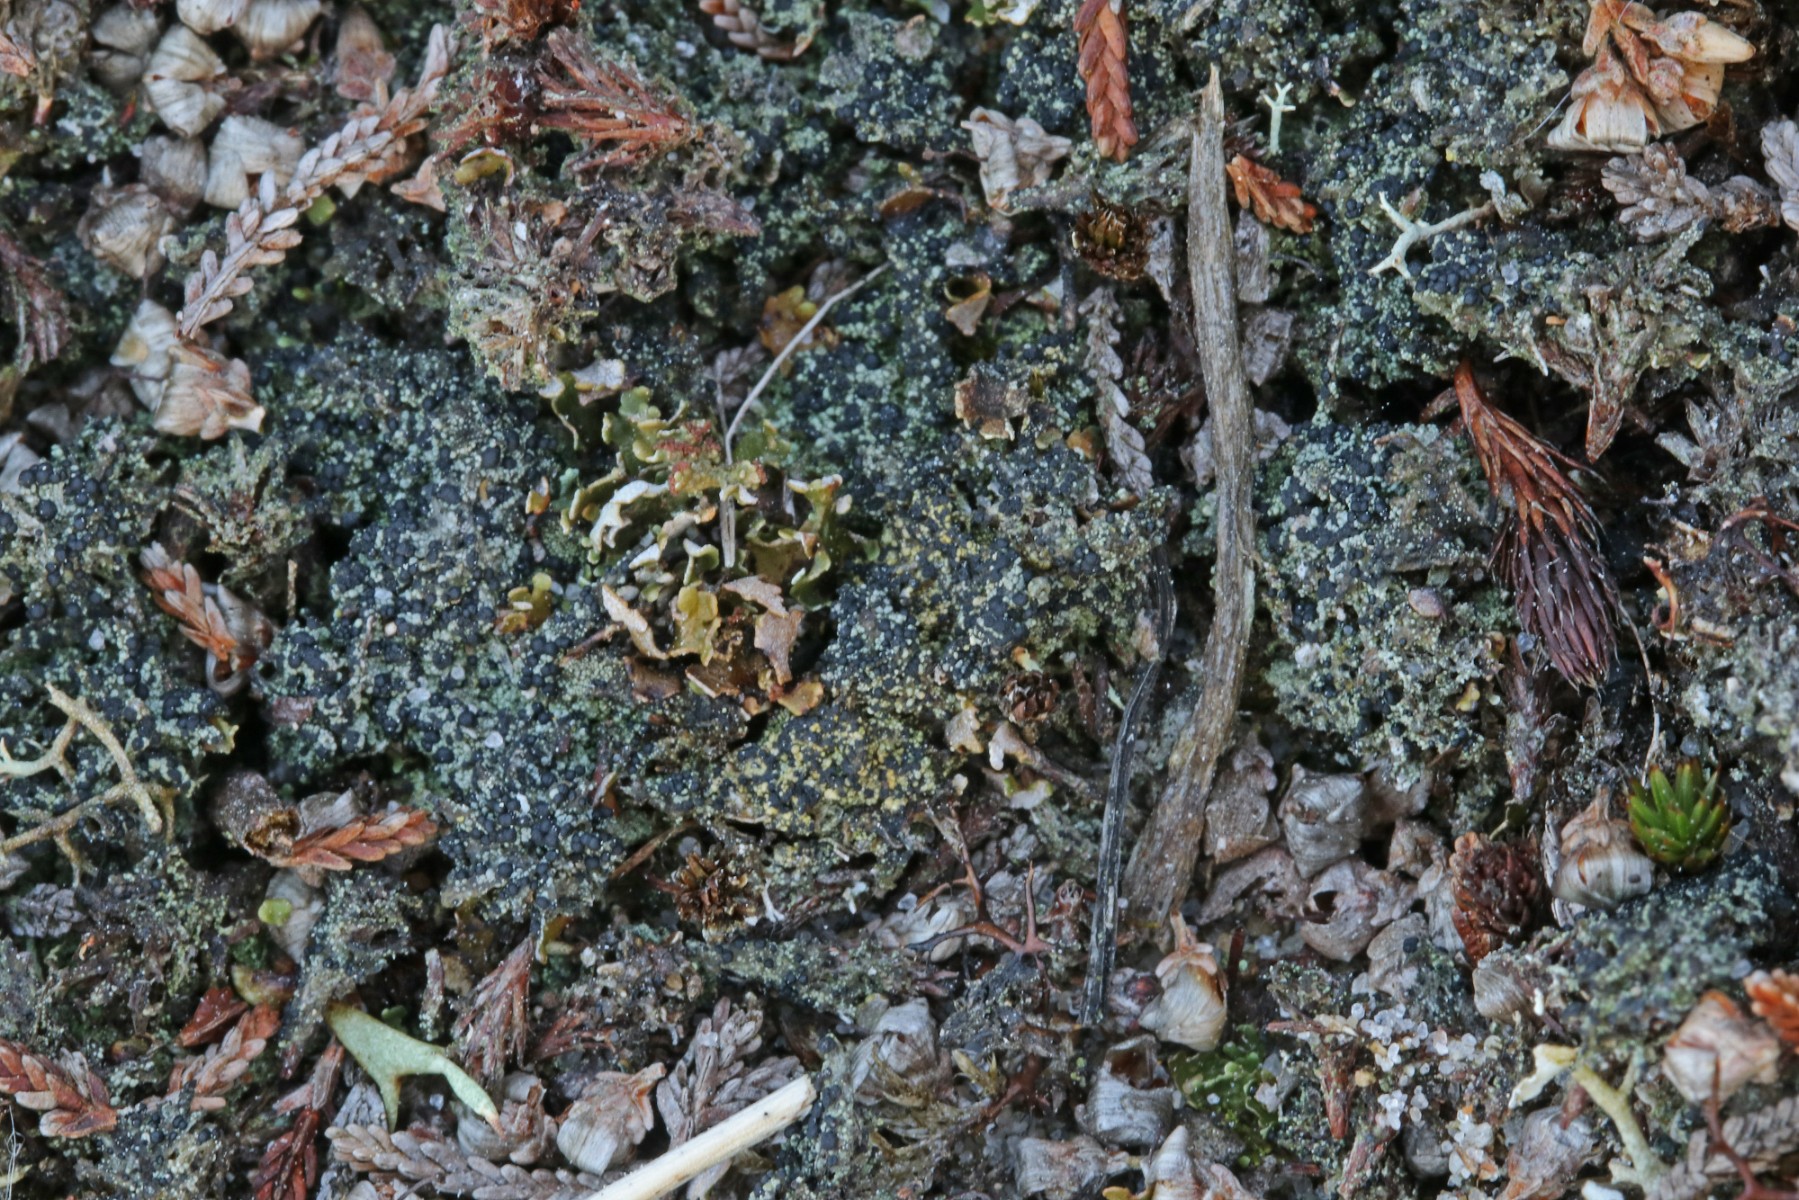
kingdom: Fungi
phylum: Ascomycota
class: Lecanoromycetes
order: Lecanorales
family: Byssolomataceae
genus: Micarea
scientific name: Micarea lignaria
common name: tørve-knaplav
